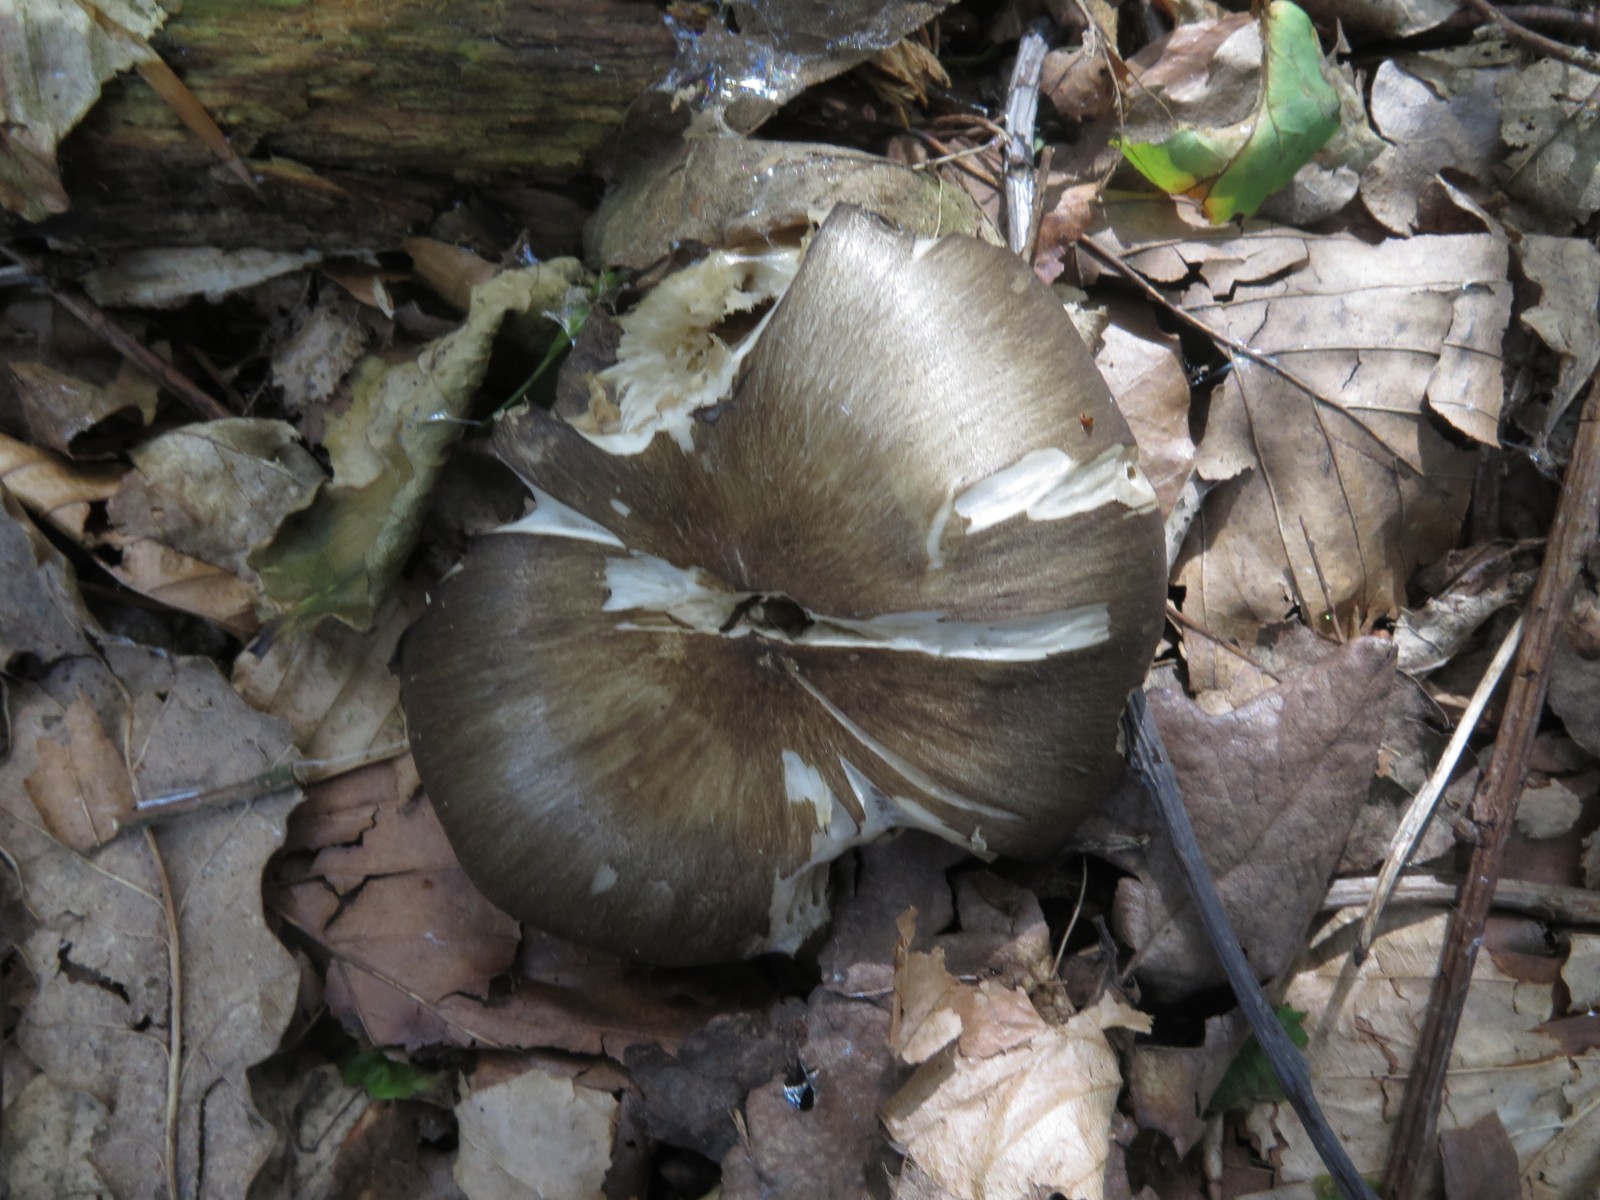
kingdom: Fungi
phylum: Basidiomycota
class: Agaricomycetes
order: Agaricales
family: Pluteaceae
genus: Pluteus
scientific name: Pluteus cervinus
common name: sodfarvet skærmhat
